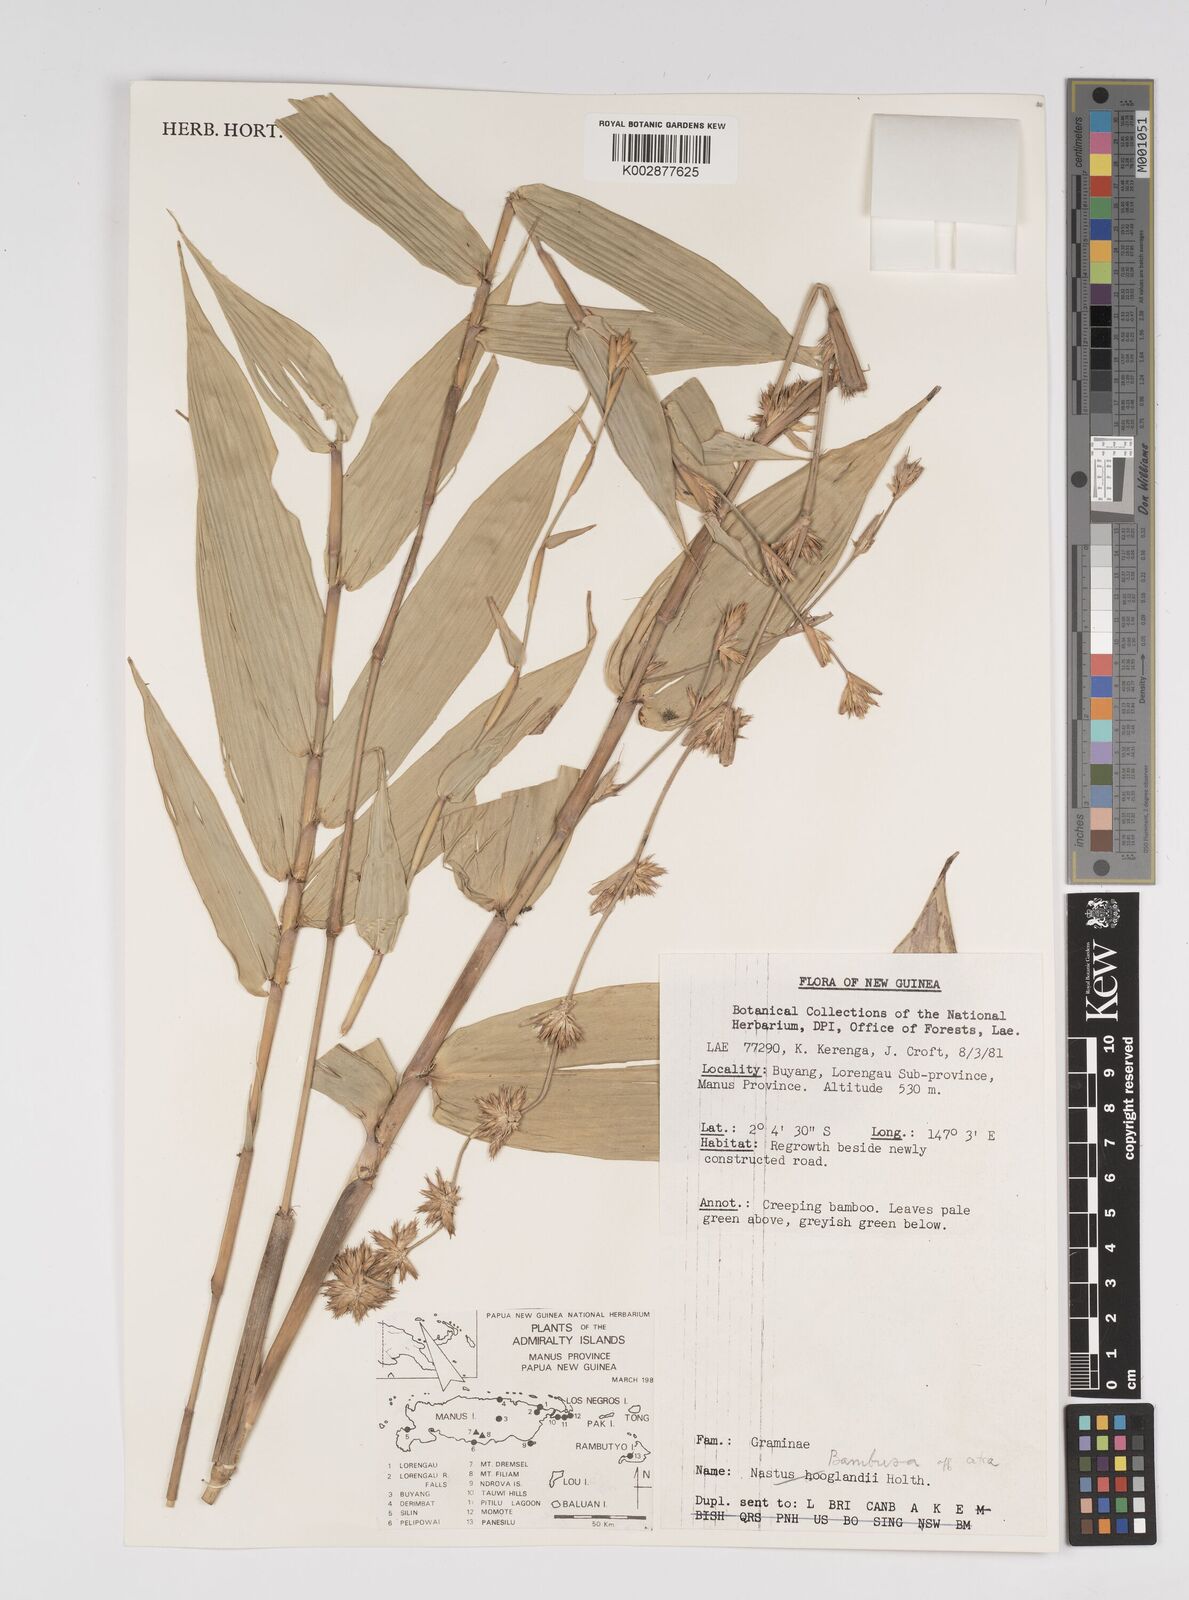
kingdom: Plantae
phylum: Tracheophyta
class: Liliopsida
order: Poales
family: Poaceae
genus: Dendrocalamus
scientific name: Dendrocalamus strictus
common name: Male bamboo
